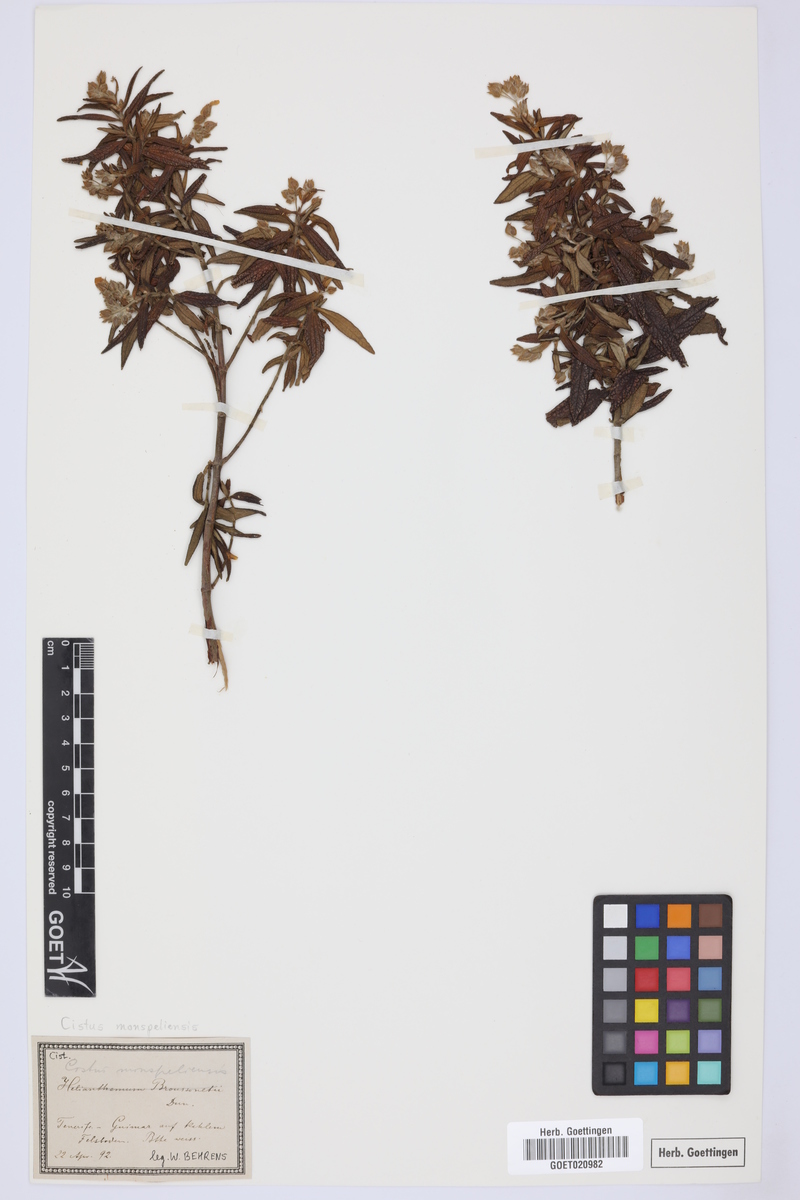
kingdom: Plantae
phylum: Tracheophyta
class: Magnoliopsida
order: Malvales
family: Cistaceae
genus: Cistus
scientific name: Cistus monspeliensis
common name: Montpelier cistus
